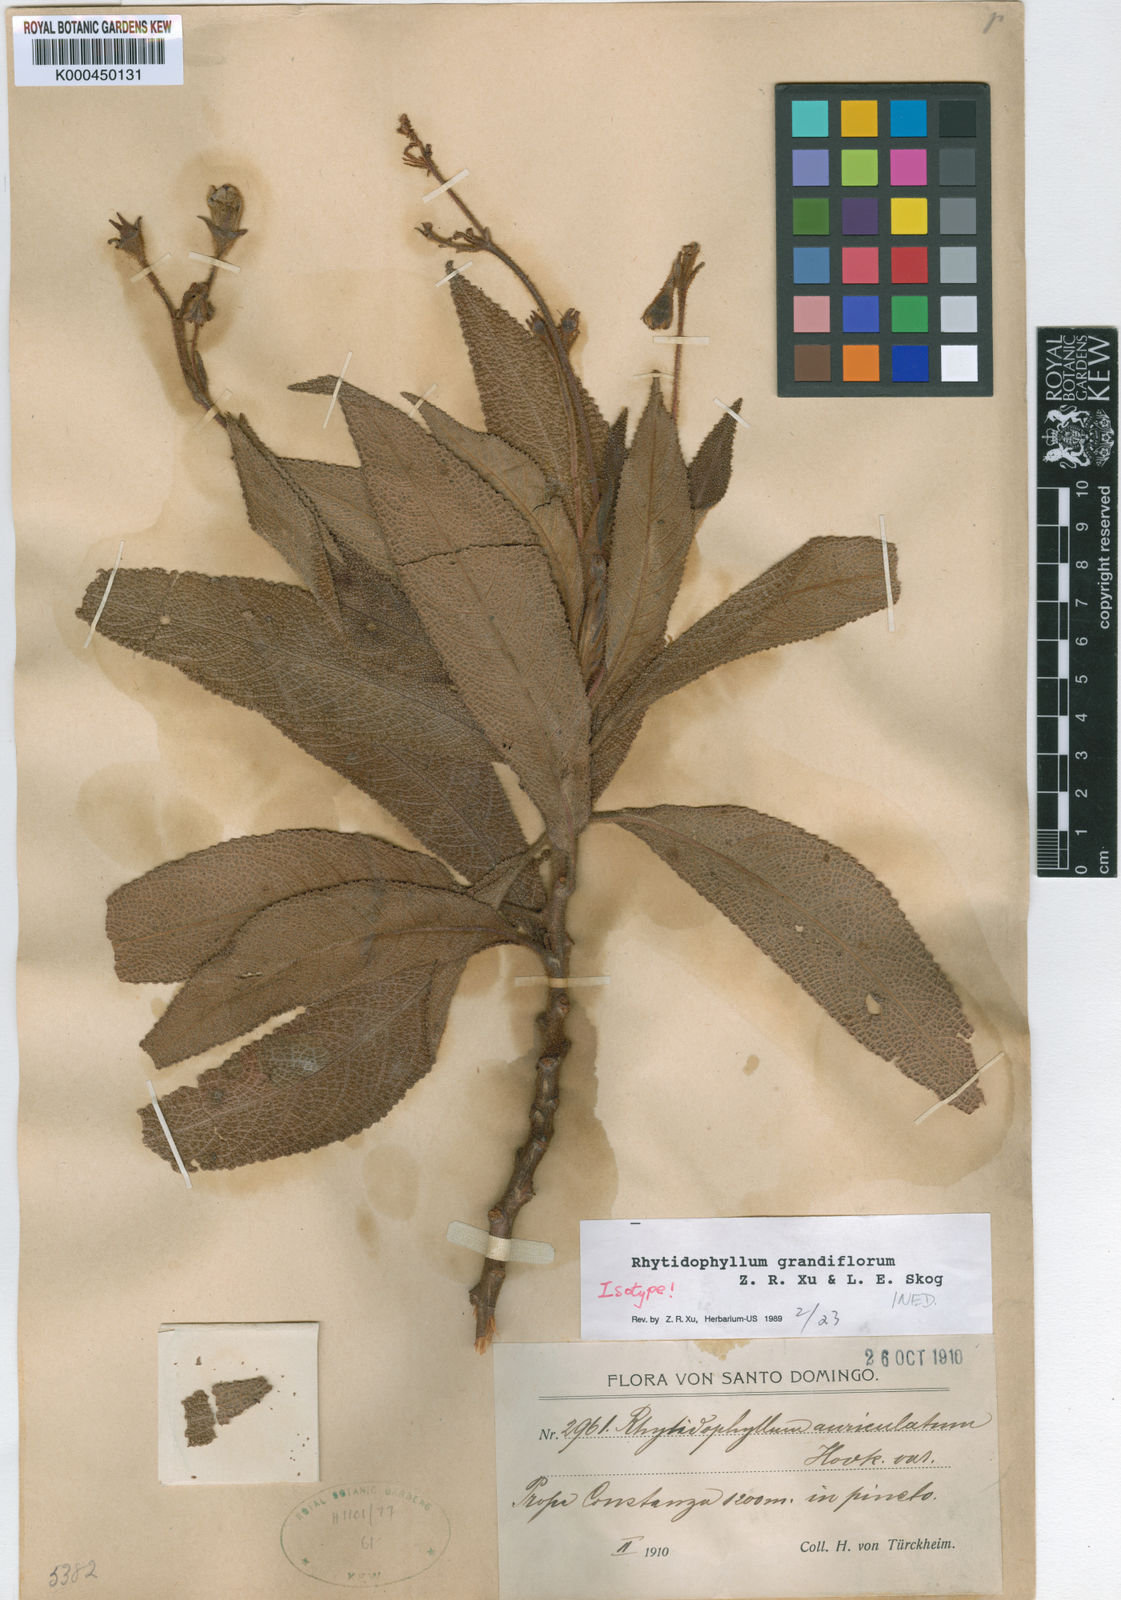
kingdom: Plantae
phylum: Tracheophyta
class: Magnoliopsida
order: Lamiales
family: Gesneriaceae
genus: Rhytidophyllum
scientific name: Rhytidophyllum
